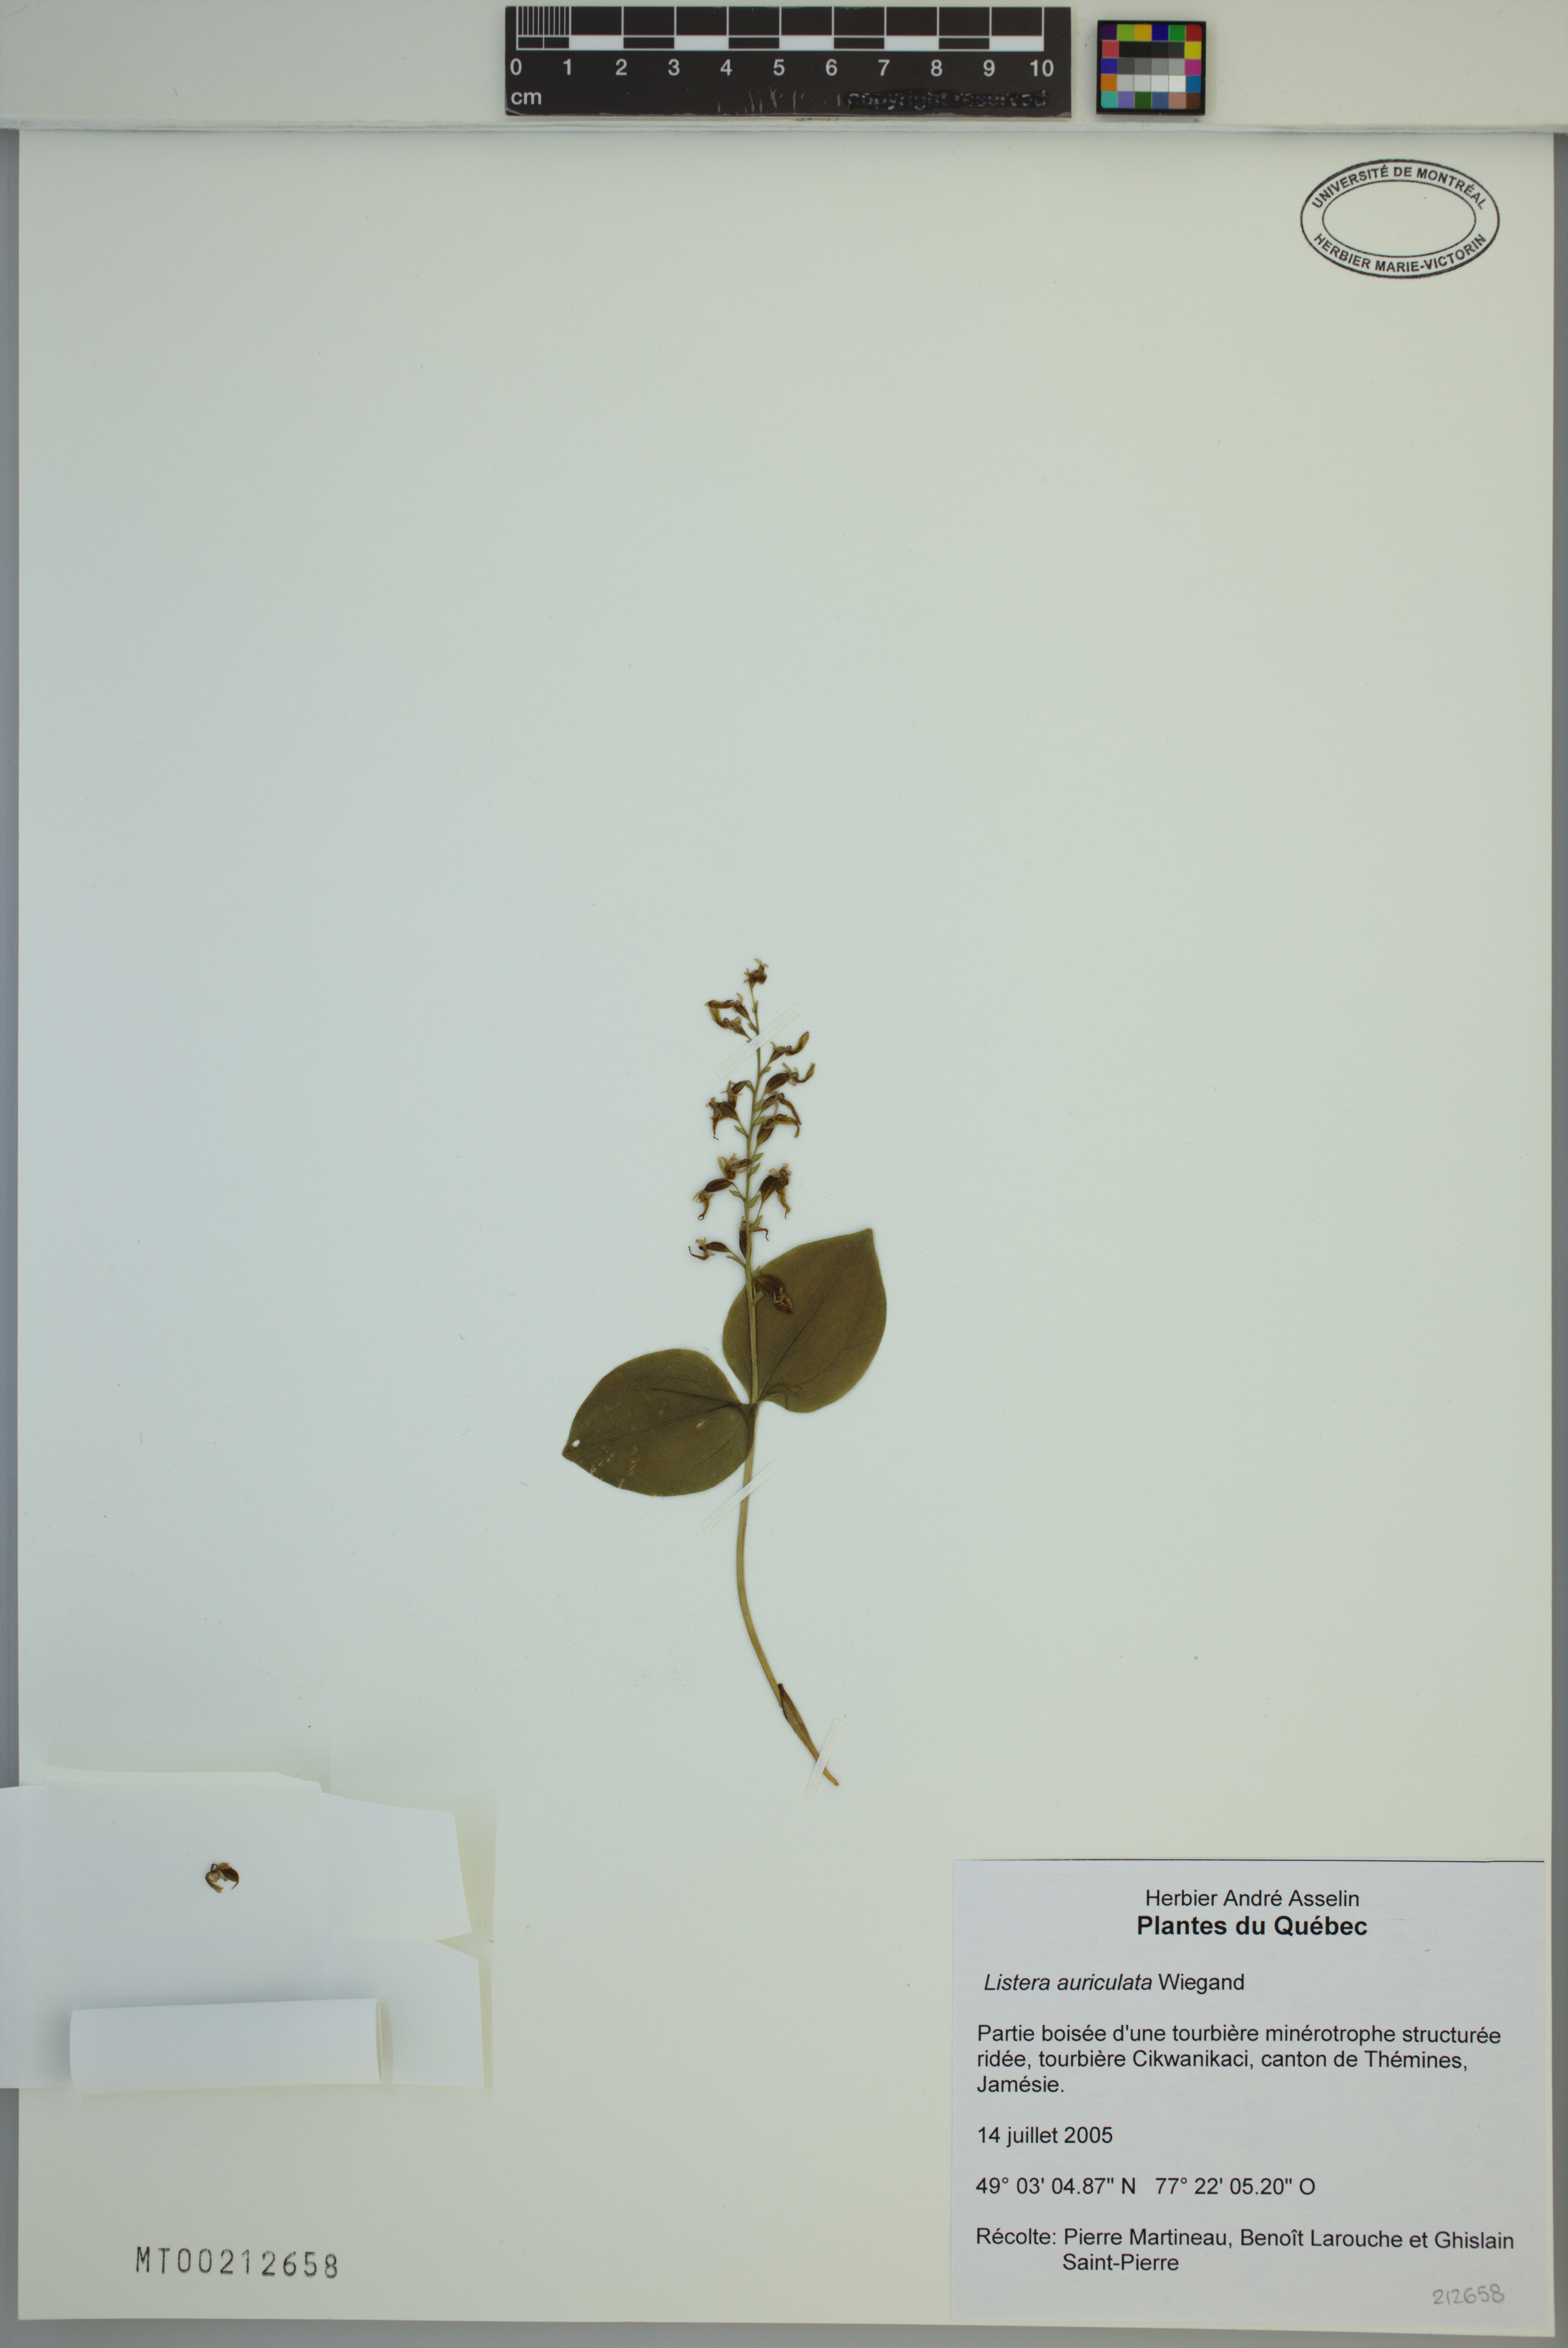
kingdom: Plantae
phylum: Tracheophyta
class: Liliopsida
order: Asparagales
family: Orchidaceae
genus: Neottia
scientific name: Neottia auriculata
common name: Auricled twayblade
